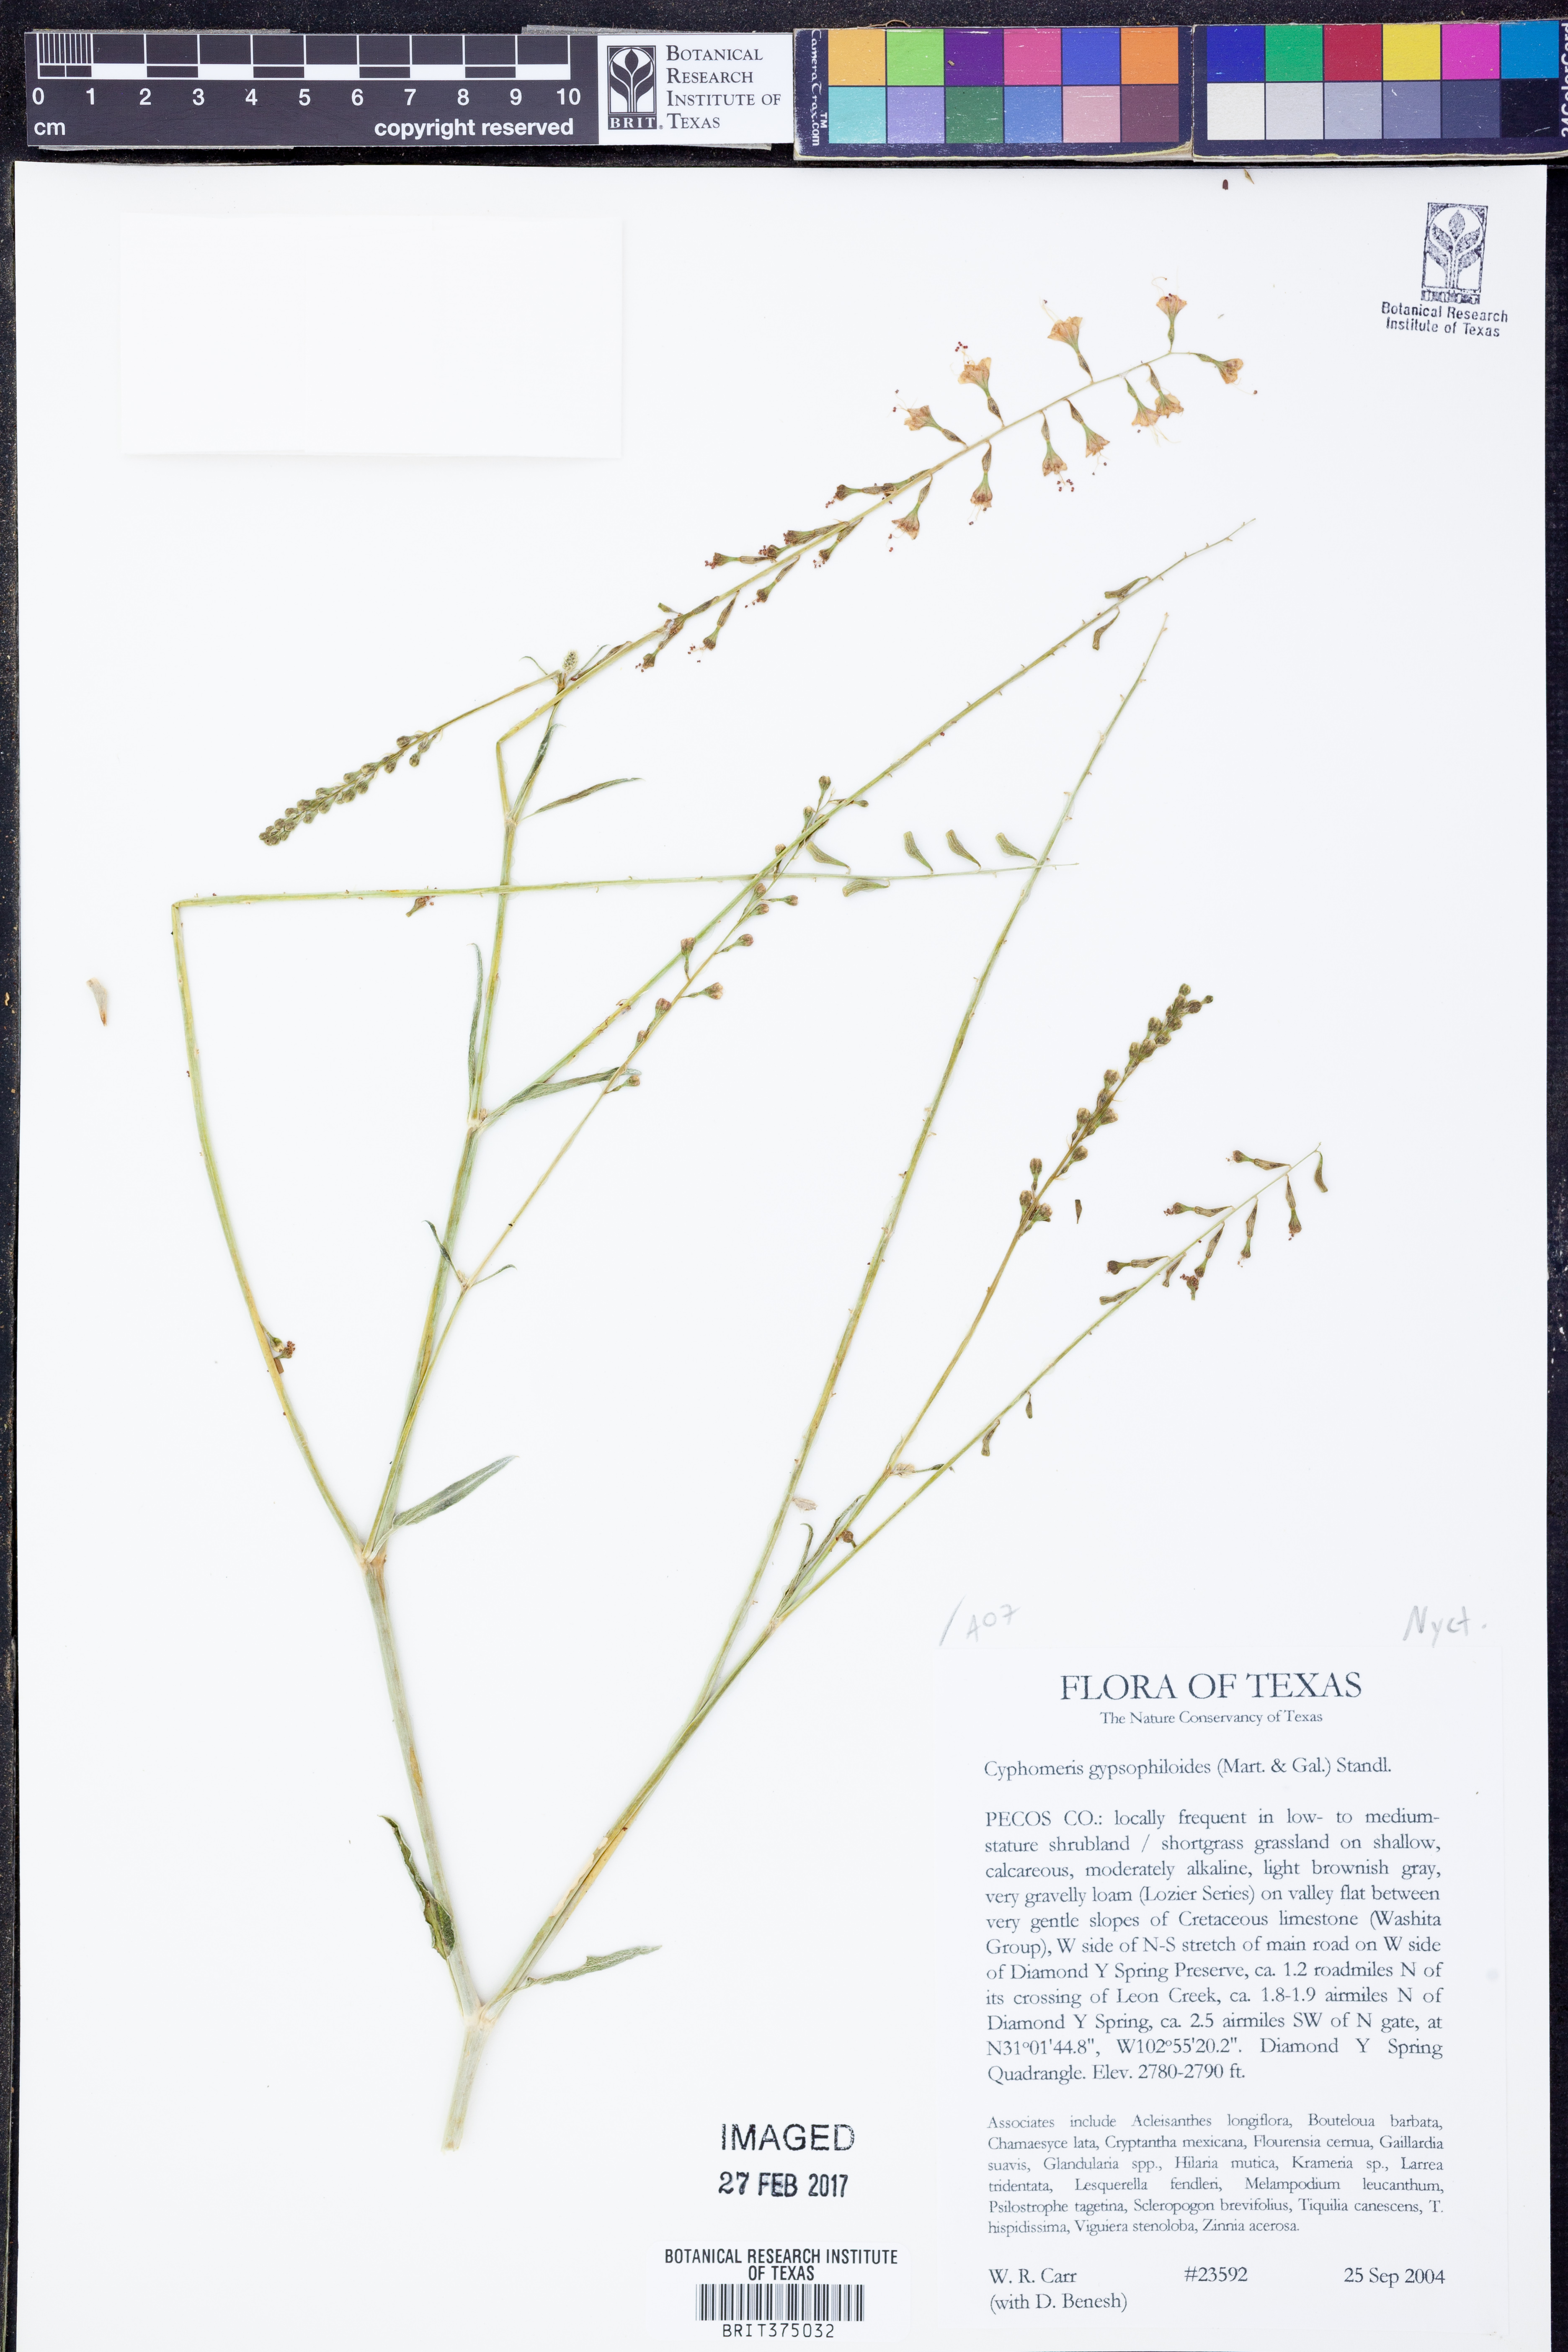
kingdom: Plantae
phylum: Tracheophyta
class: Magnoliopsida
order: Caryophyllales
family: Nyctaginaceae
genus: Cyphomeris
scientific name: Cyphomeris gypsophiloides
